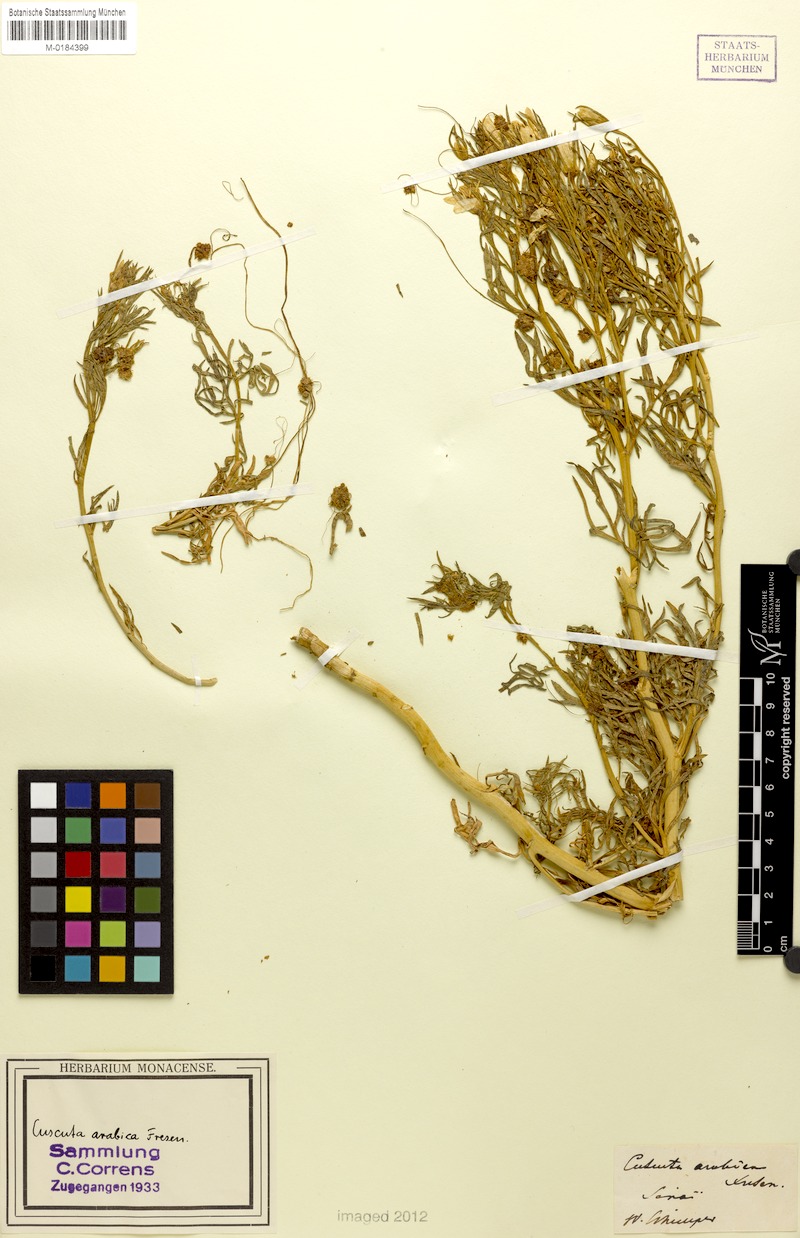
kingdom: Plantae
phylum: Tracheophyta
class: Magnoliopsida
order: Solanales
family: Convolvulaceae
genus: Cuscuta
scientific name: Cuscuta hyalina
